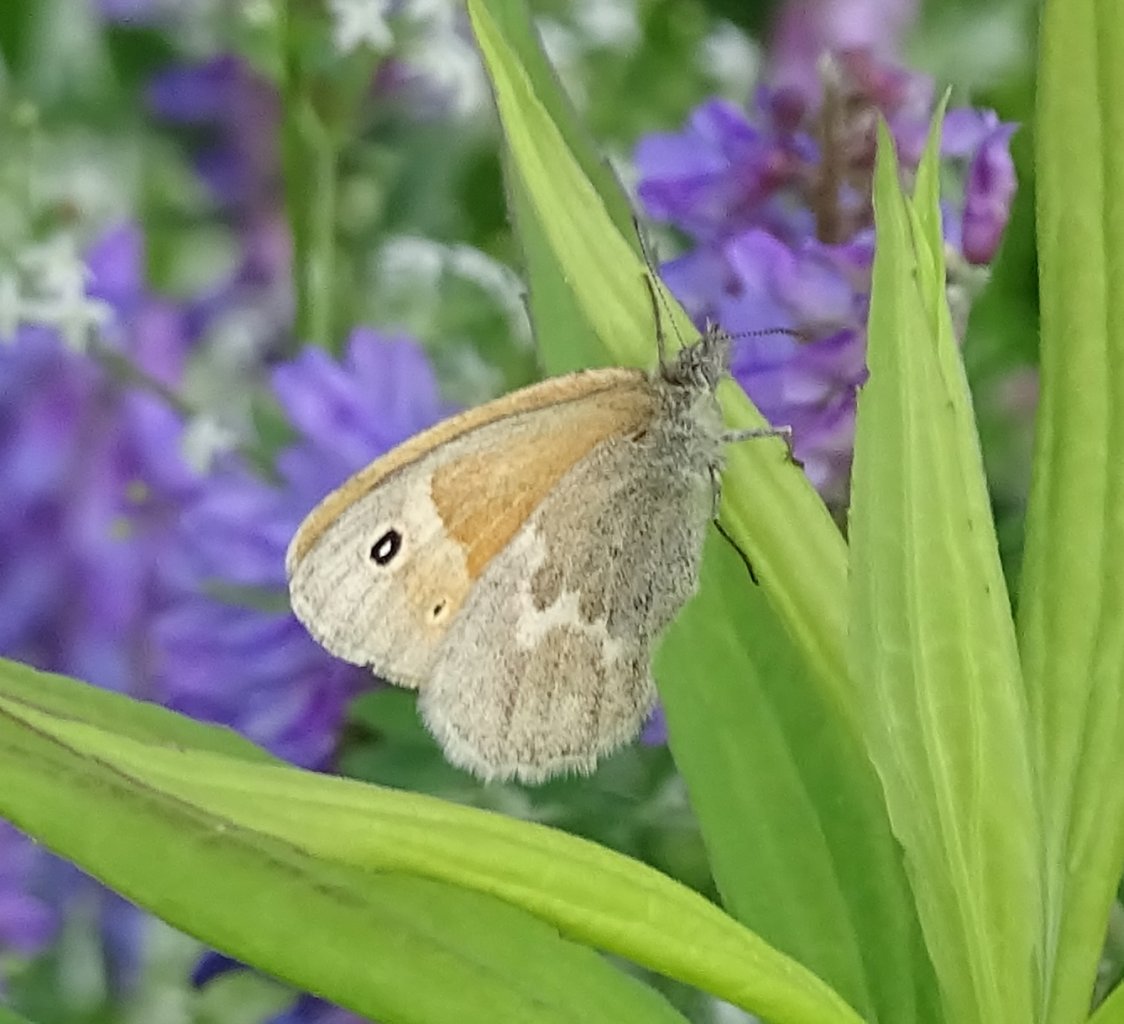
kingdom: Animalia
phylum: Arthropoda
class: Insecta
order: Lepidoptera
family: Nymphalidae
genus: Coenonympha
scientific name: Coenonympha tullia
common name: Large Heath
